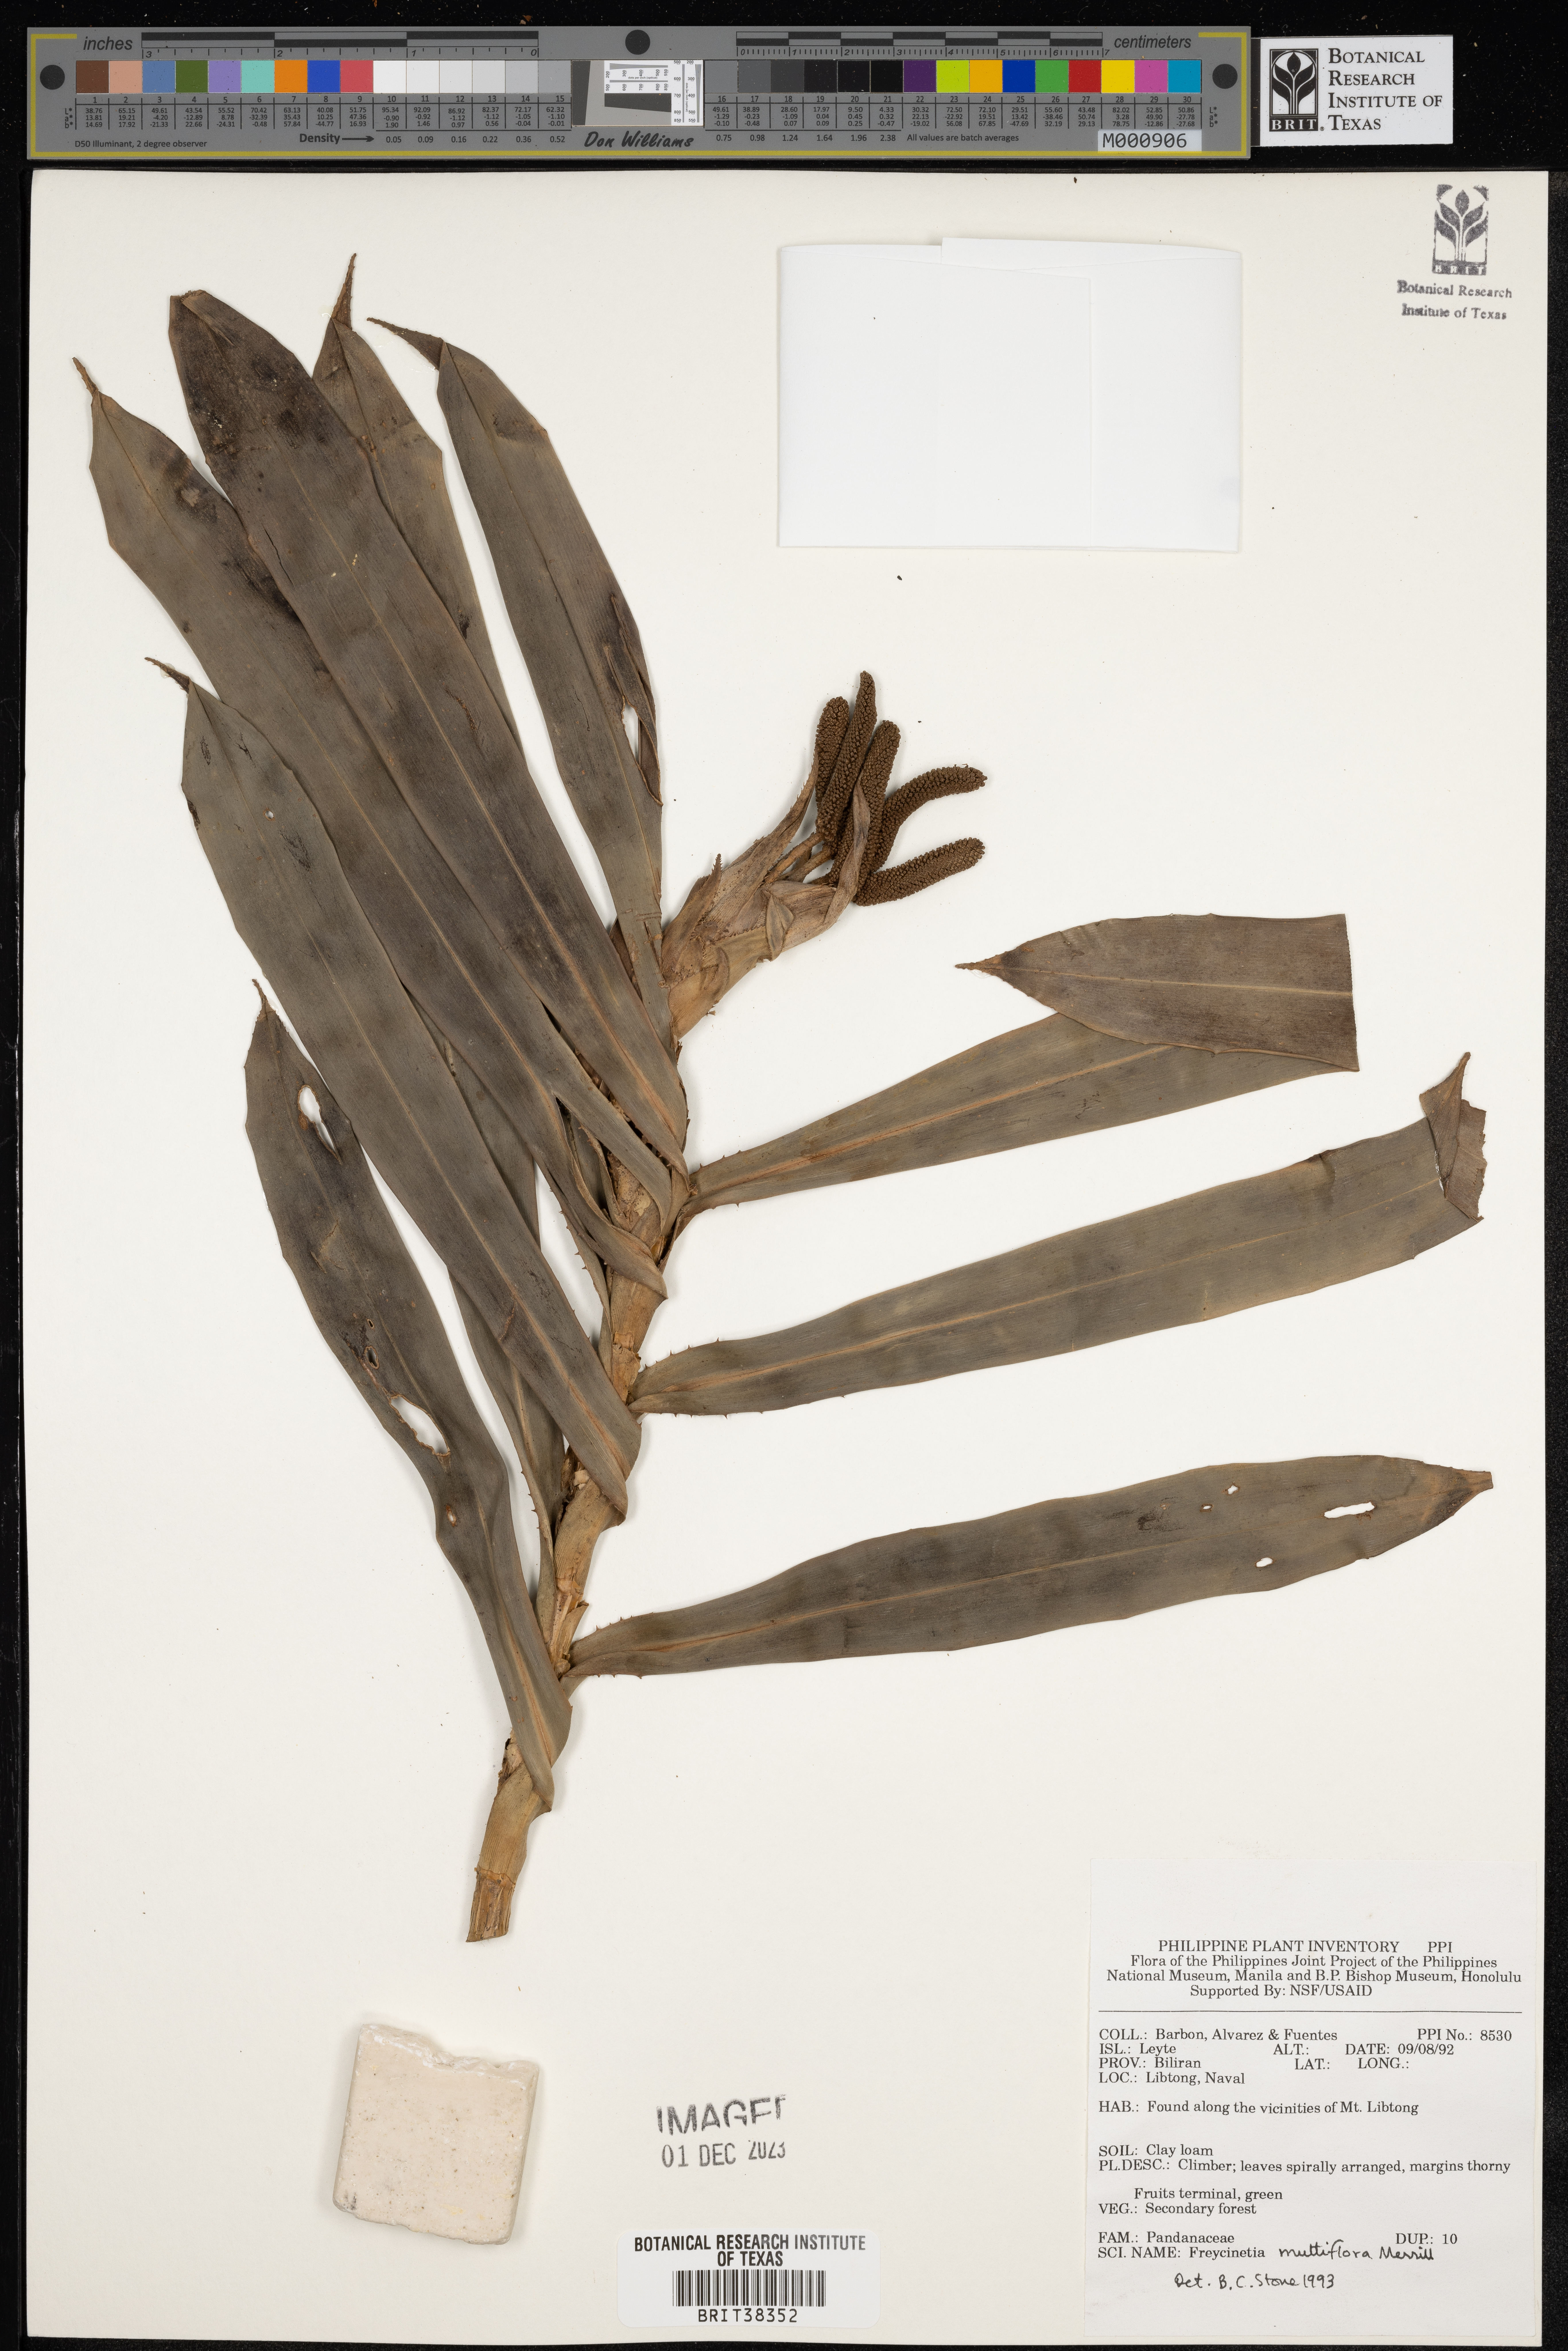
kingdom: Plantae
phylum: Tracheophyta
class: Liliopsida
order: Pandanales
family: Pandanaceae
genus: Freycinetia
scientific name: Freycinetia multiflora
